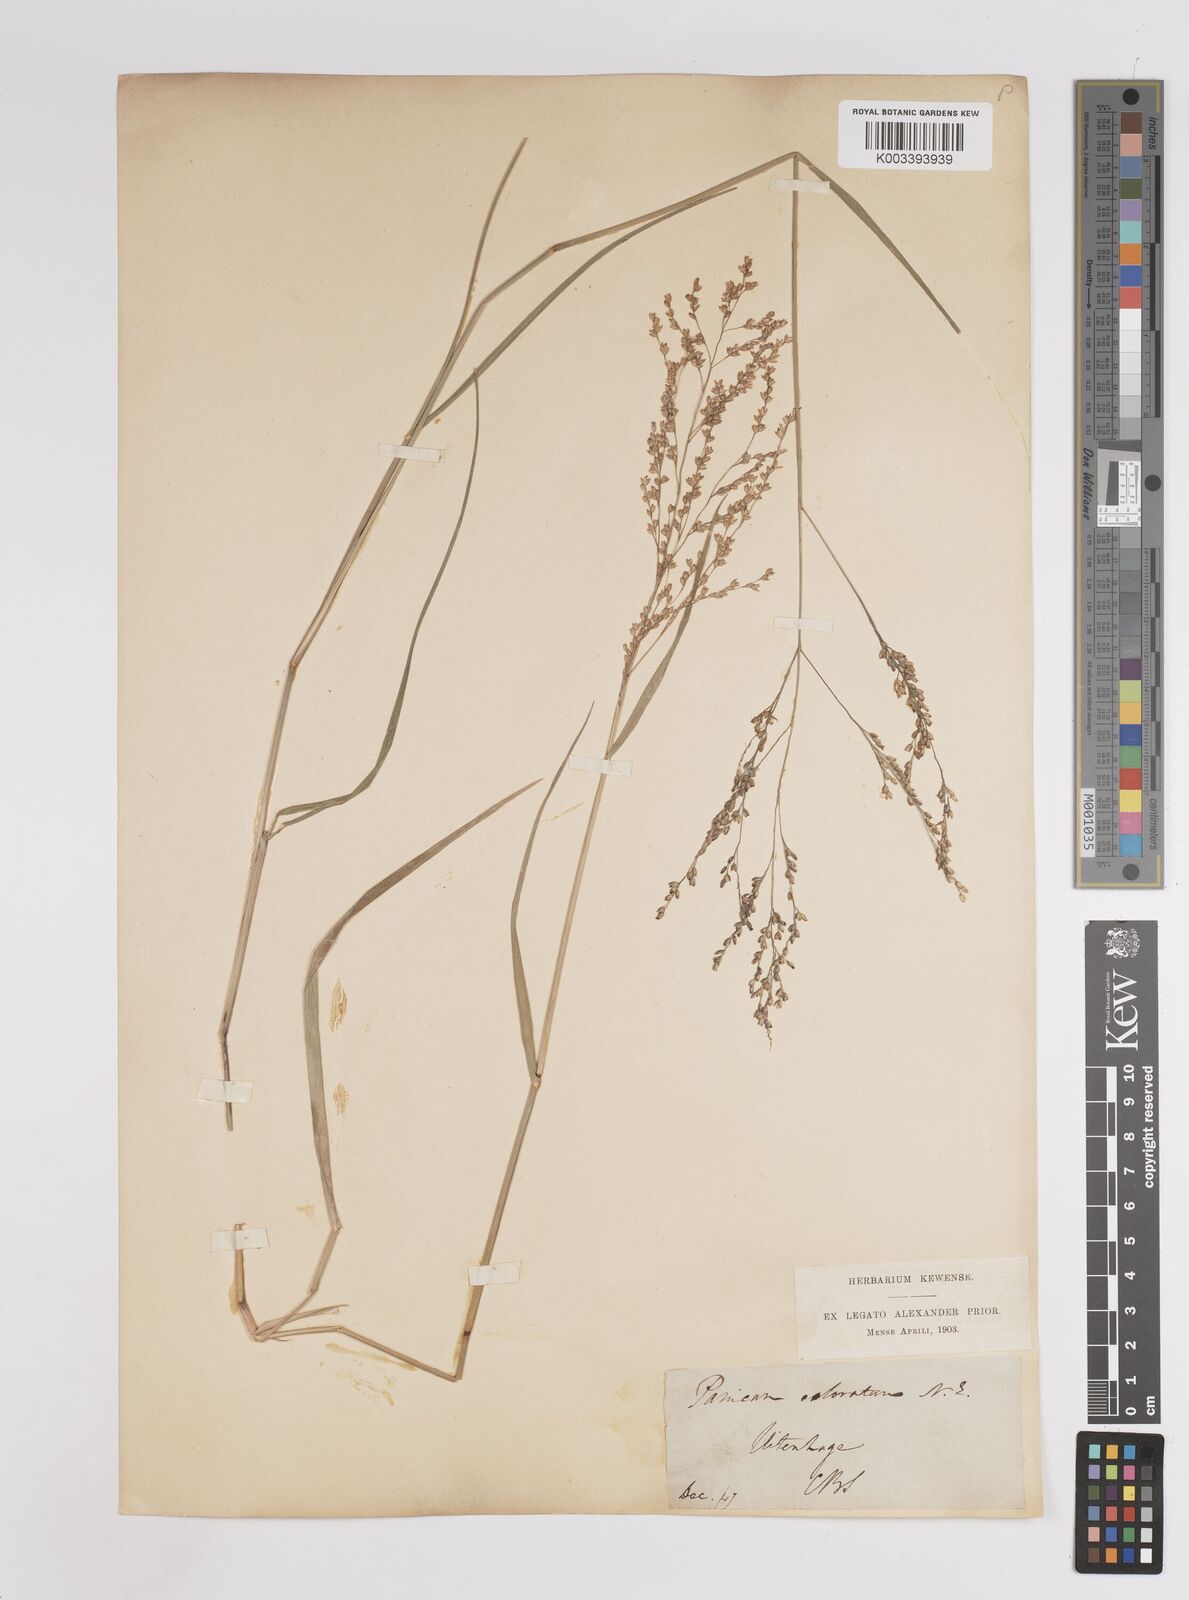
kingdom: Plantae
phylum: Tracheophyta
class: Liliopsida
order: Poales
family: Poaceae
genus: Panicum
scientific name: Panicum coloratum
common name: Kleingrass
